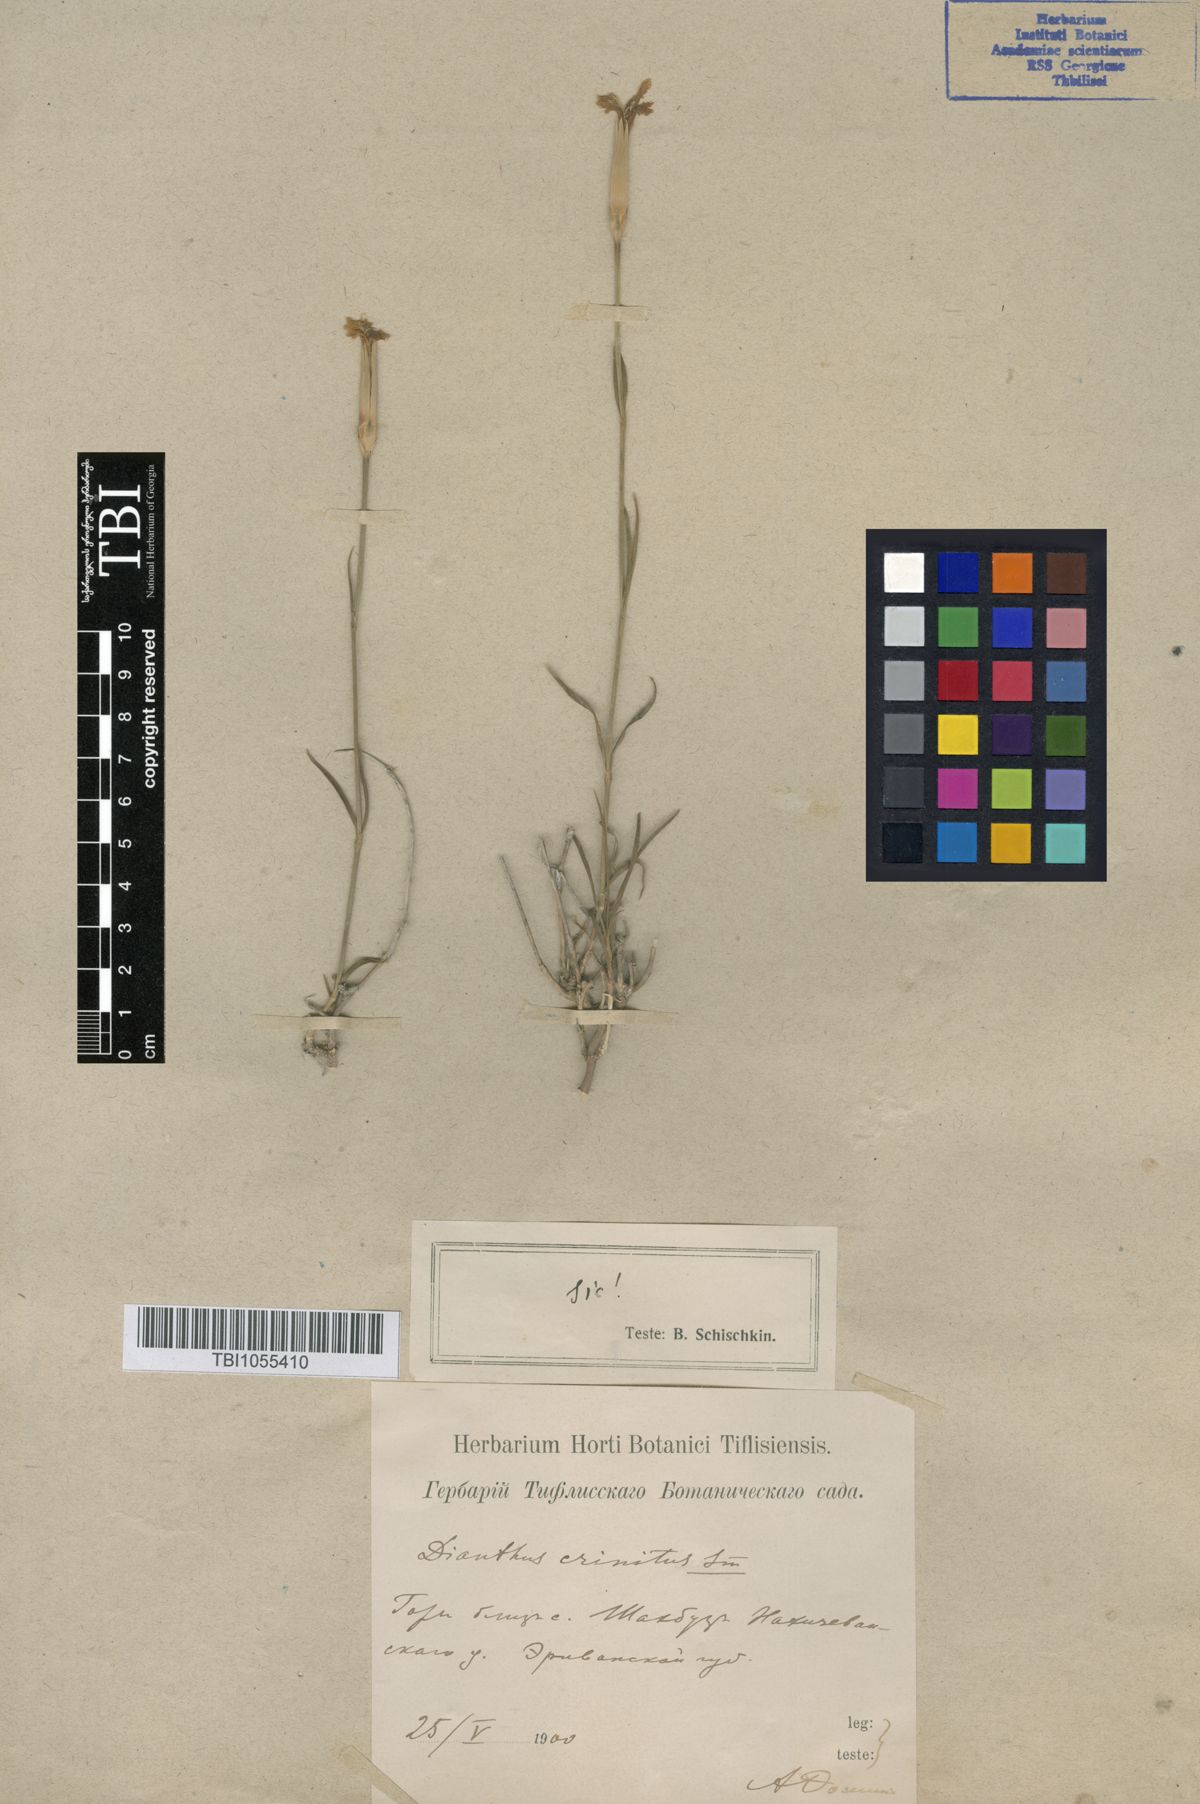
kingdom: Plantae
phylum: Tracheophyta
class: Magnoliopsida
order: Caryophyllales
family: Caryophyllaceae
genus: Dianthus
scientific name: Dianthus crinitus
